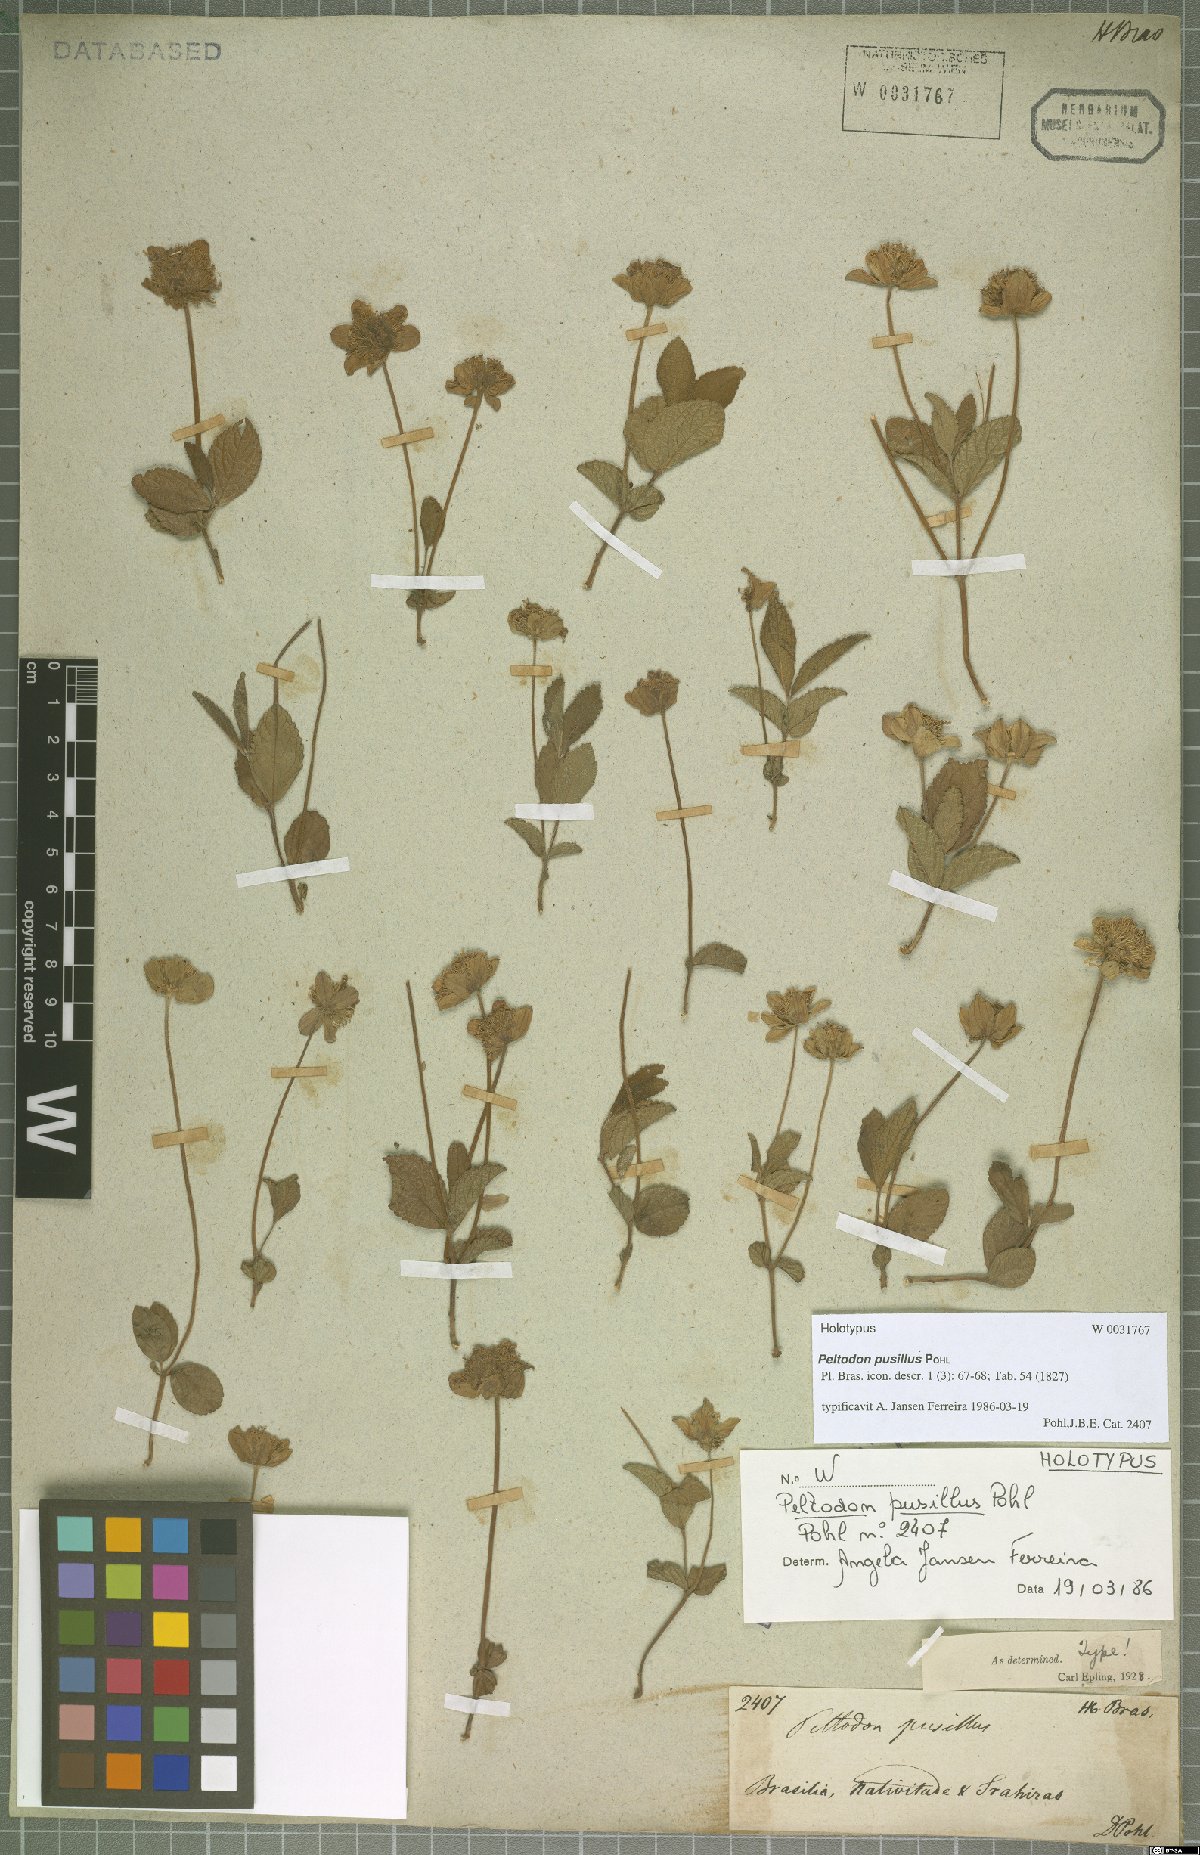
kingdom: Plantae
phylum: Tracheophyta
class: Magnoliopsida
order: Lamiales
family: Lamiaceae
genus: Hyptis
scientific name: Hyptis pusilla
